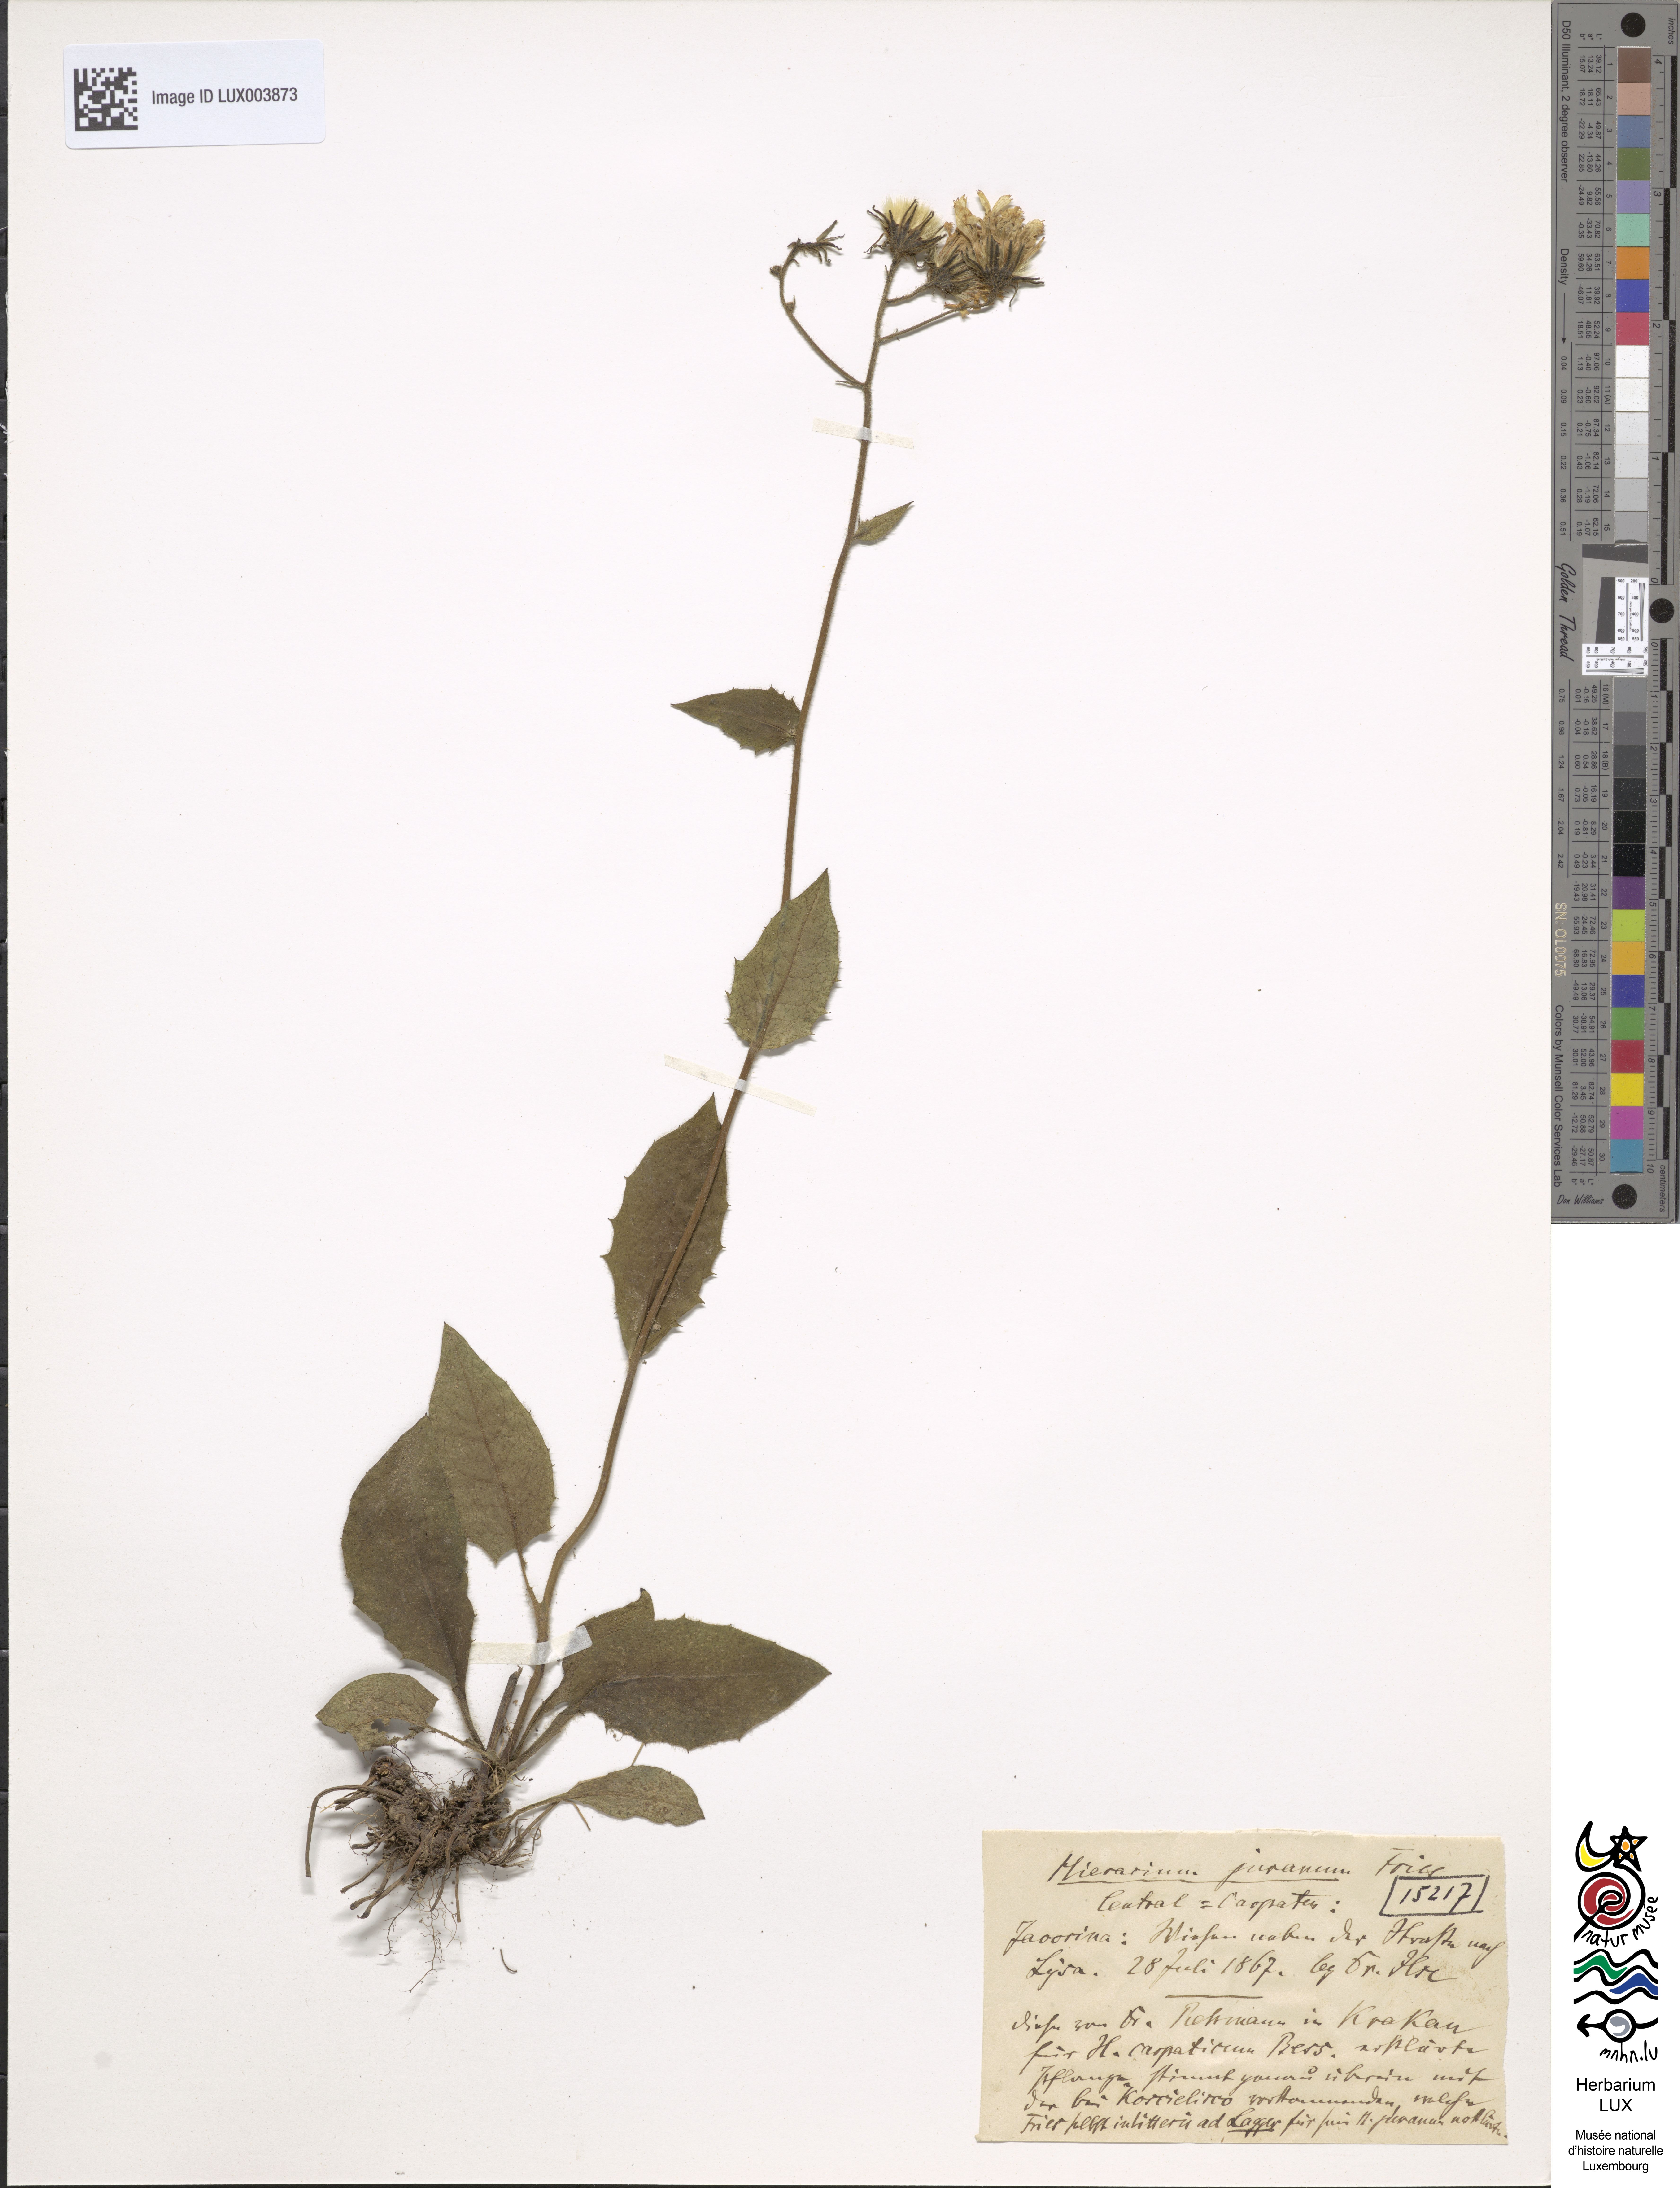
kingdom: Plantae
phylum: Tracheophyta
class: Magnoliopsida
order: Asterales
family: Asteraceae
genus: Hieracium
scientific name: Hieracium jurassicum
